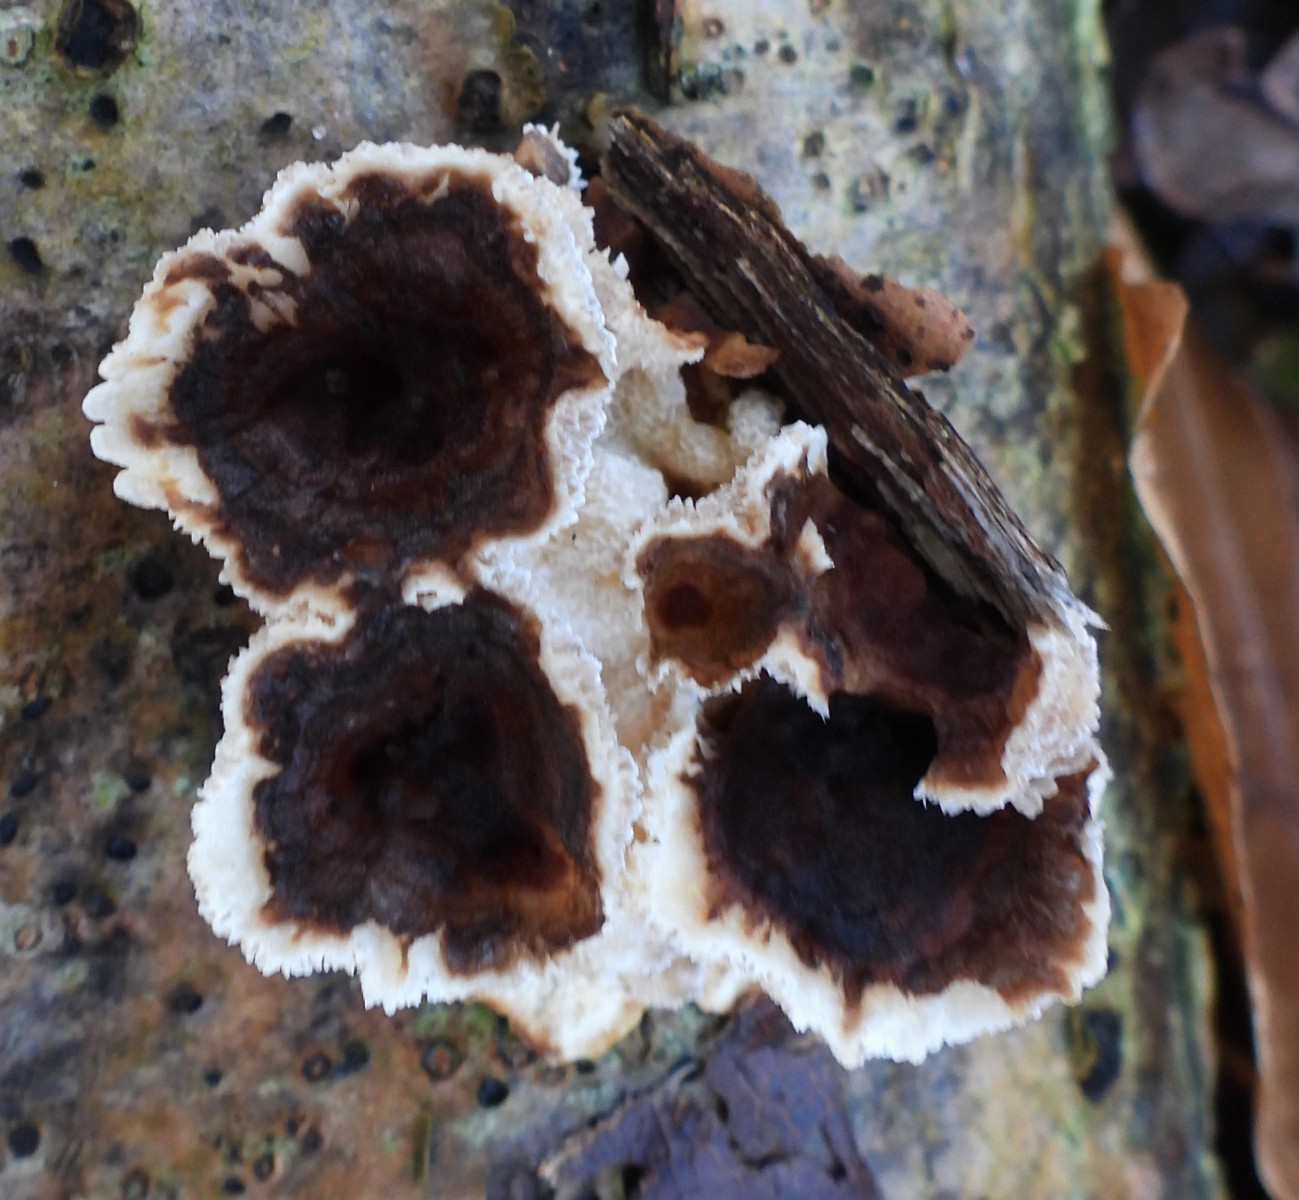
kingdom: Fungi
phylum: Basidiomycota
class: Agaricomycetes
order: Polyporales
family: Polyporaceae
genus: Trametes
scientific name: Trametes versicolor
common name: broget læderporesvamp
